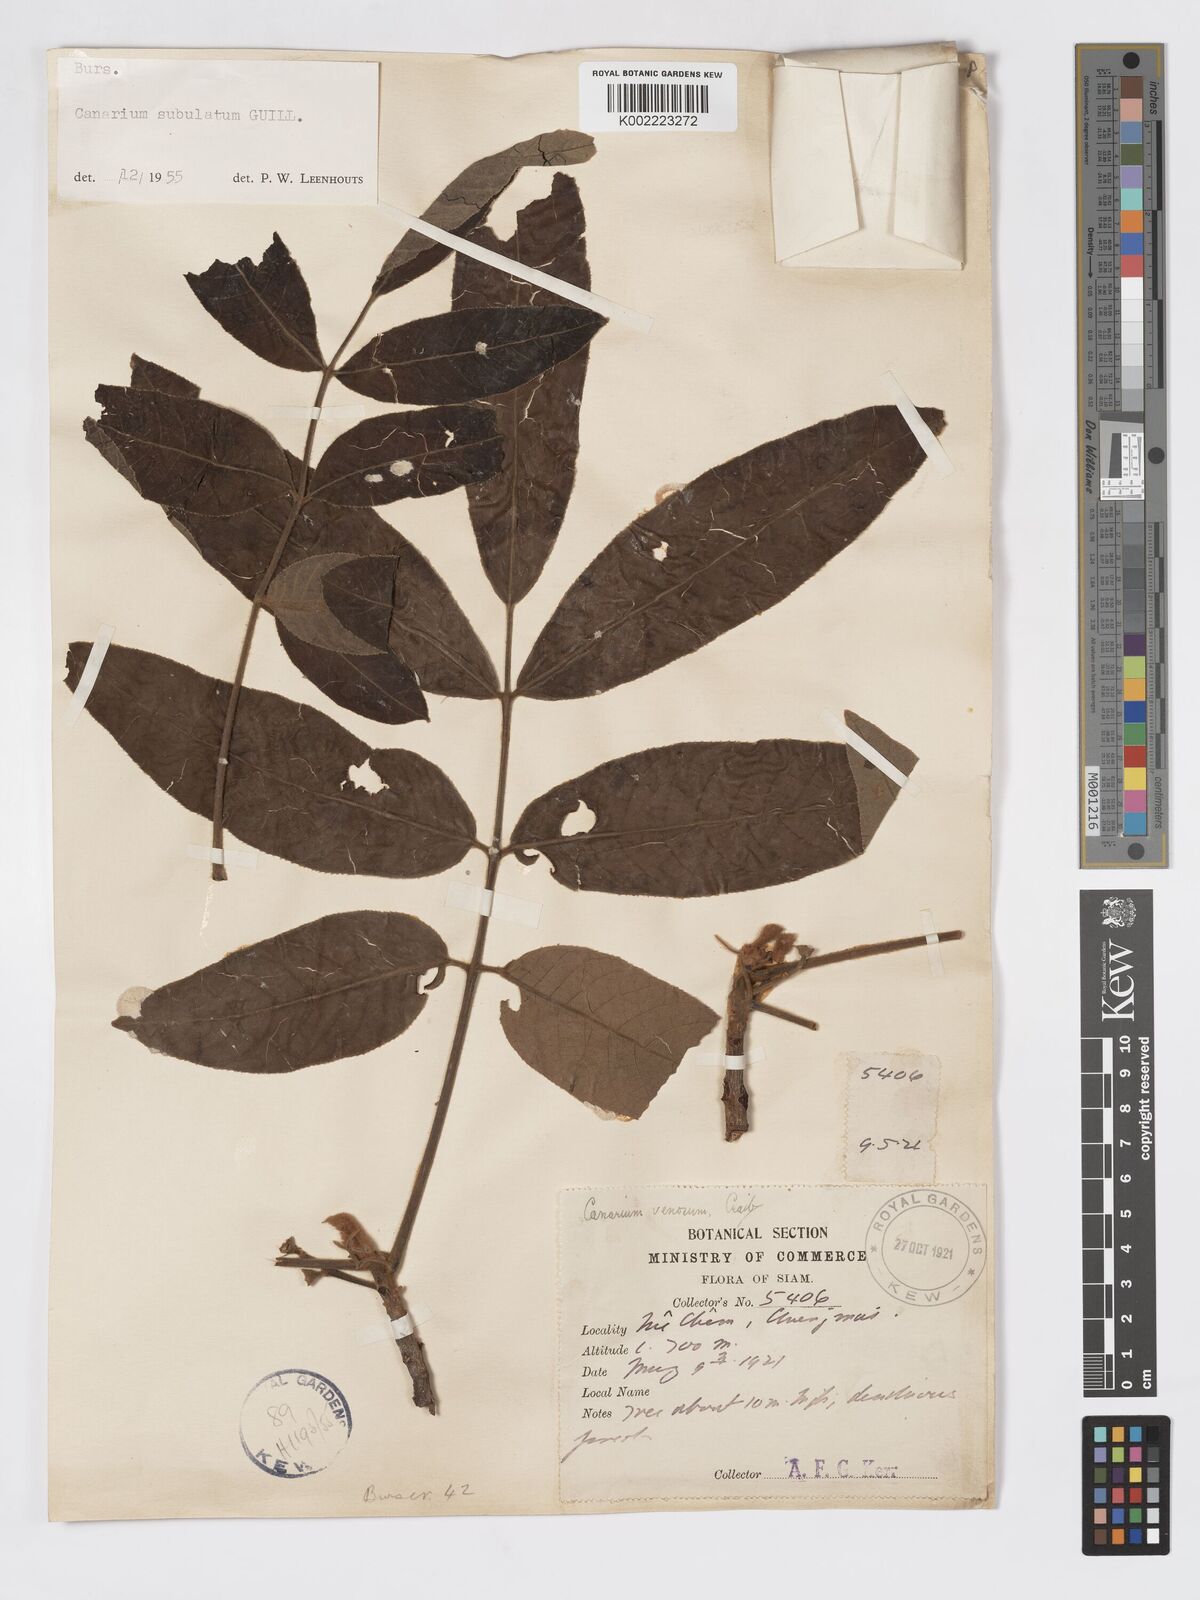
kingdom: Plantae
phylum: Tracheophyta
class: Magnoliopsida
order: Sapindales
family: Burseraceae
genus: Canarium
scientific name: Canarium subulatum
